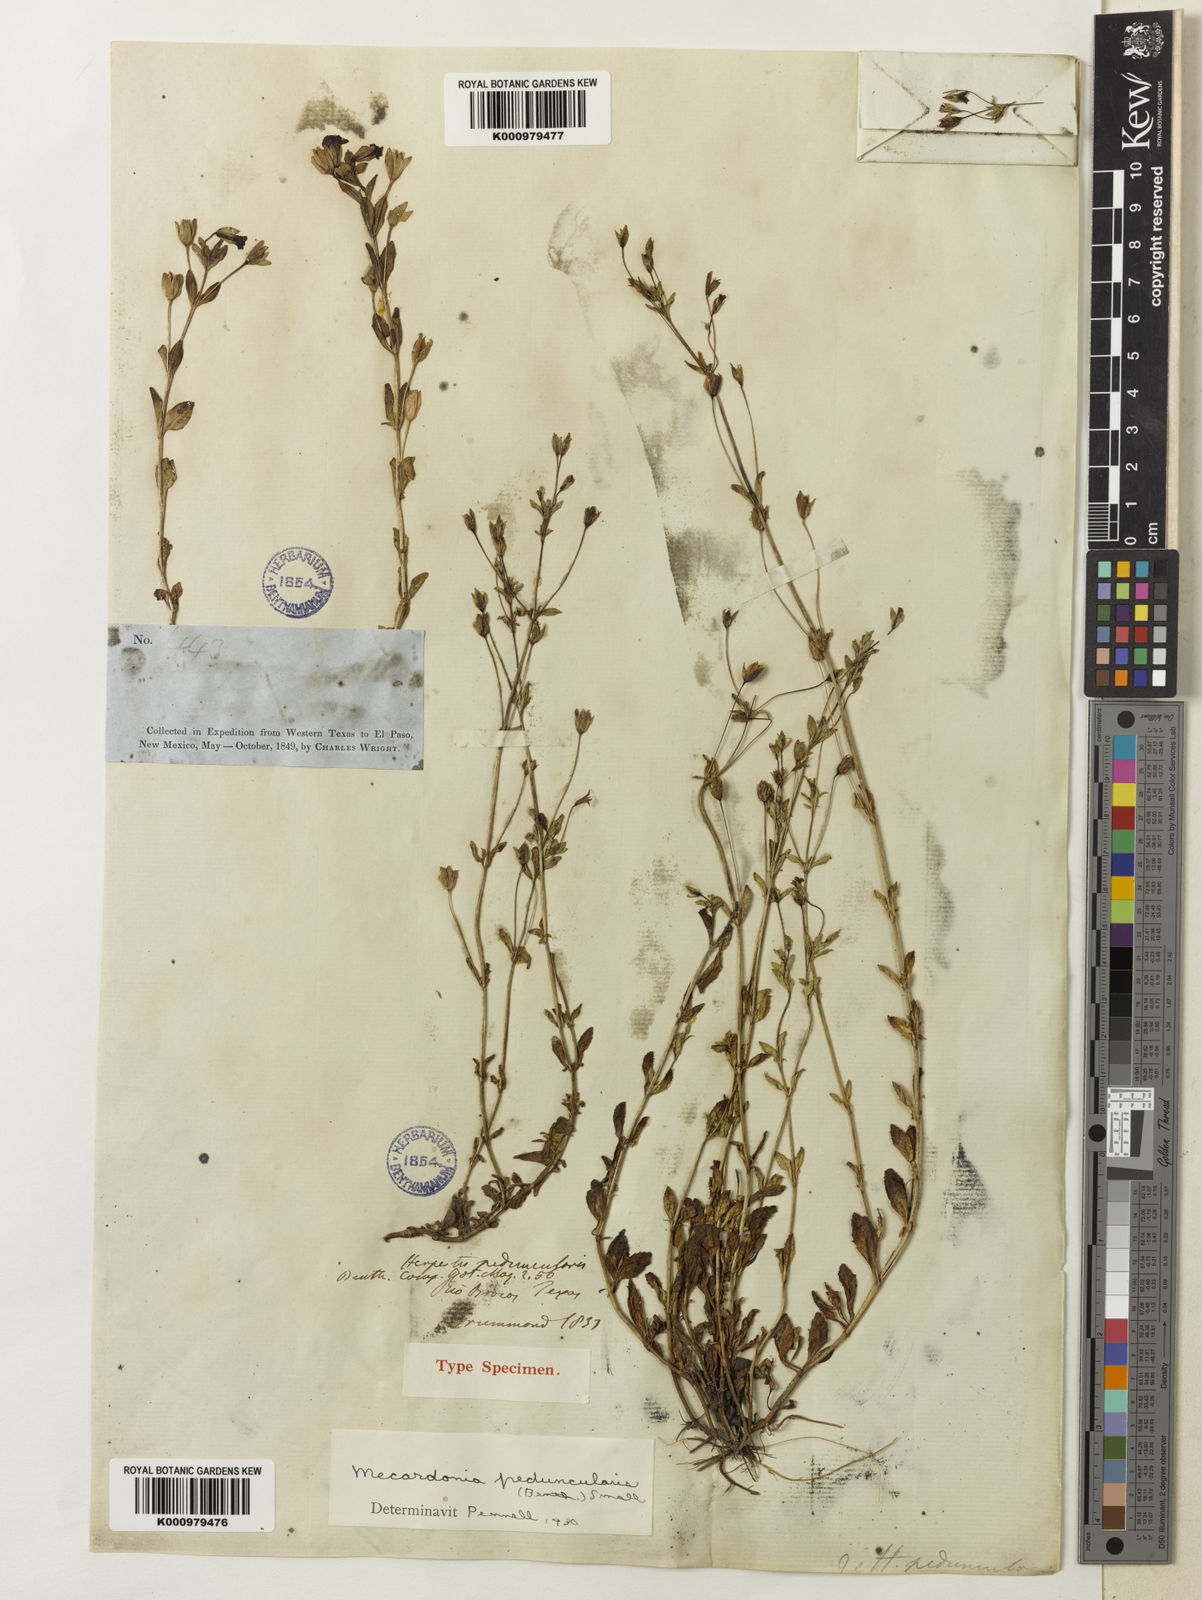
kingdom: Plantae
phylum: Tracheophyta
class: Magnoliopsida
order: Lamiales
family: Plantaginaceae
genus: Mecardonia
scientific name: Mecardonia procumbens
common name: Baby jump-up
